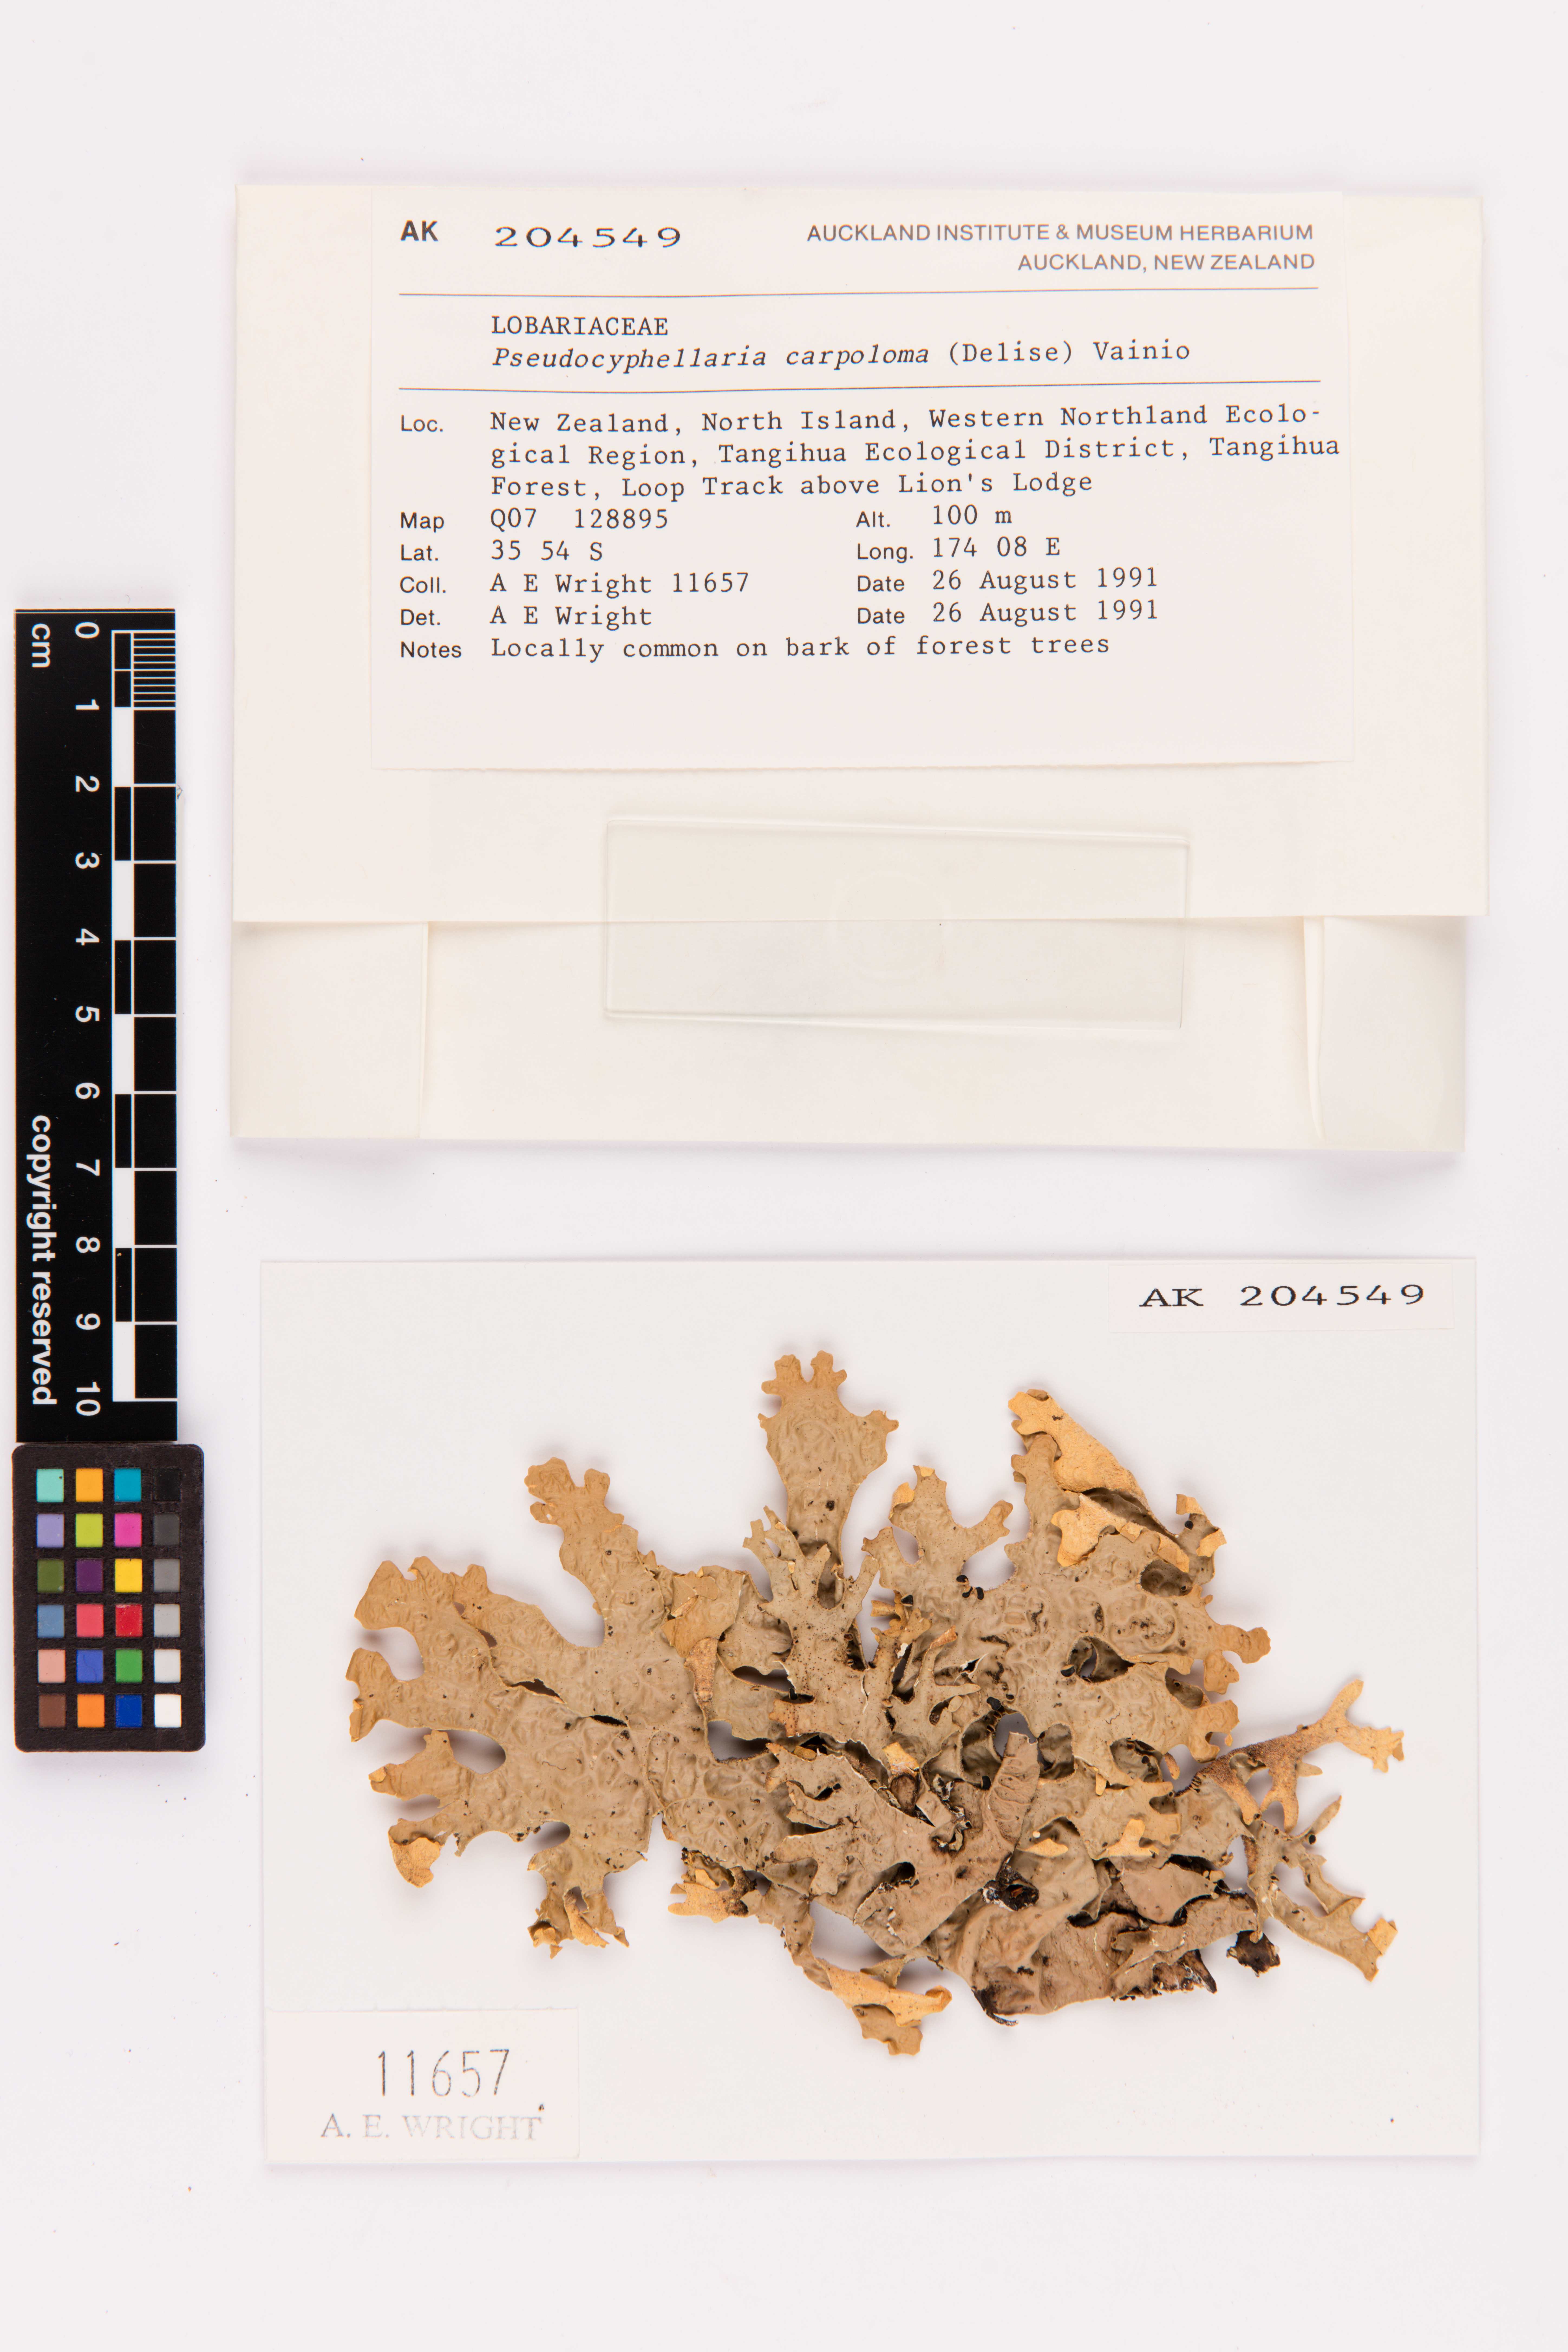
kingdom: Fungi
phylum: Ascomycota
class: Lecanoromycetes
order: Peltigerales
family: Lobariaceae
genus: Pseudocyphellaria
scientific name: Pseudocyphellaria carpoloma
